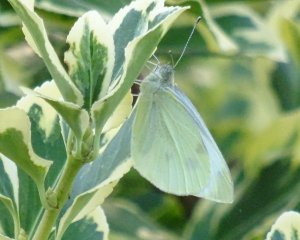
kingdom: Animalia
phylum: Arthropoda
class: Insecta
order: Lepidoptera
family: Pieridae
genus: Pieris
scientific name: Pieris rapae
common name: Cabbage White
